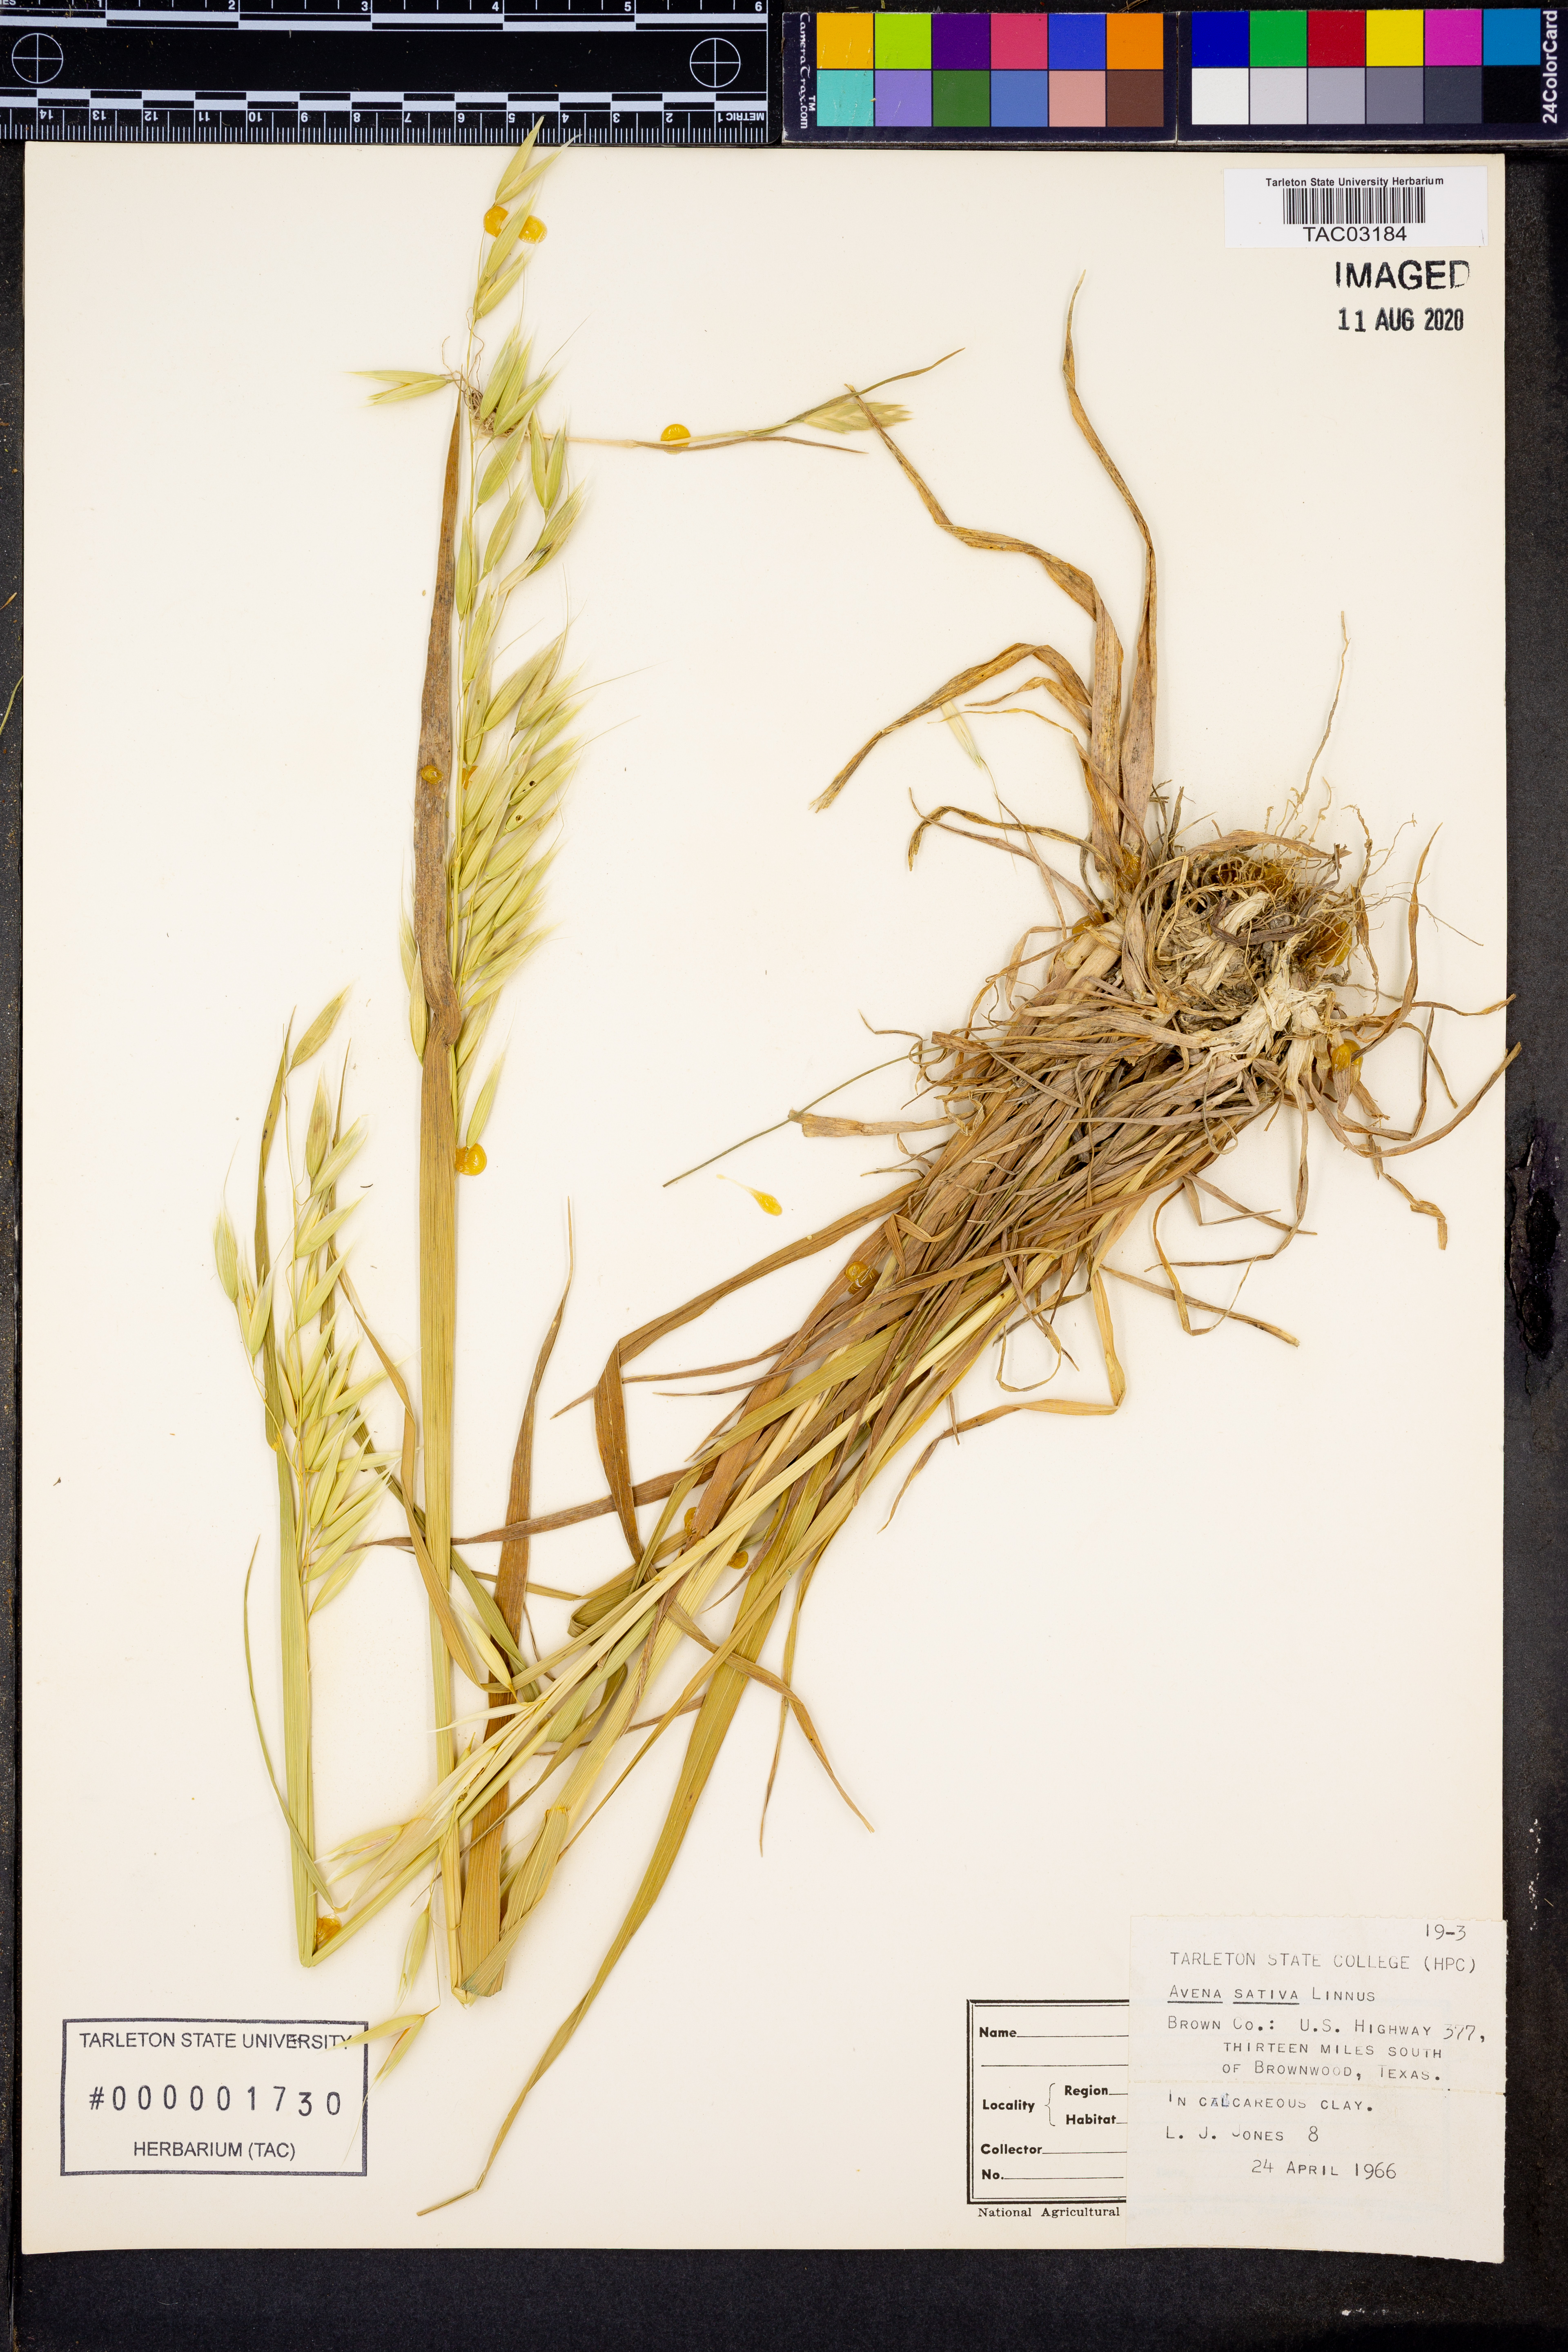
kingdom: Plantae
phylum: Tracheophyta
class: Liliopsida
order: Poales
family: Poaceae
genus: Avena
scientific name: Avena sativa
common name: Oat
